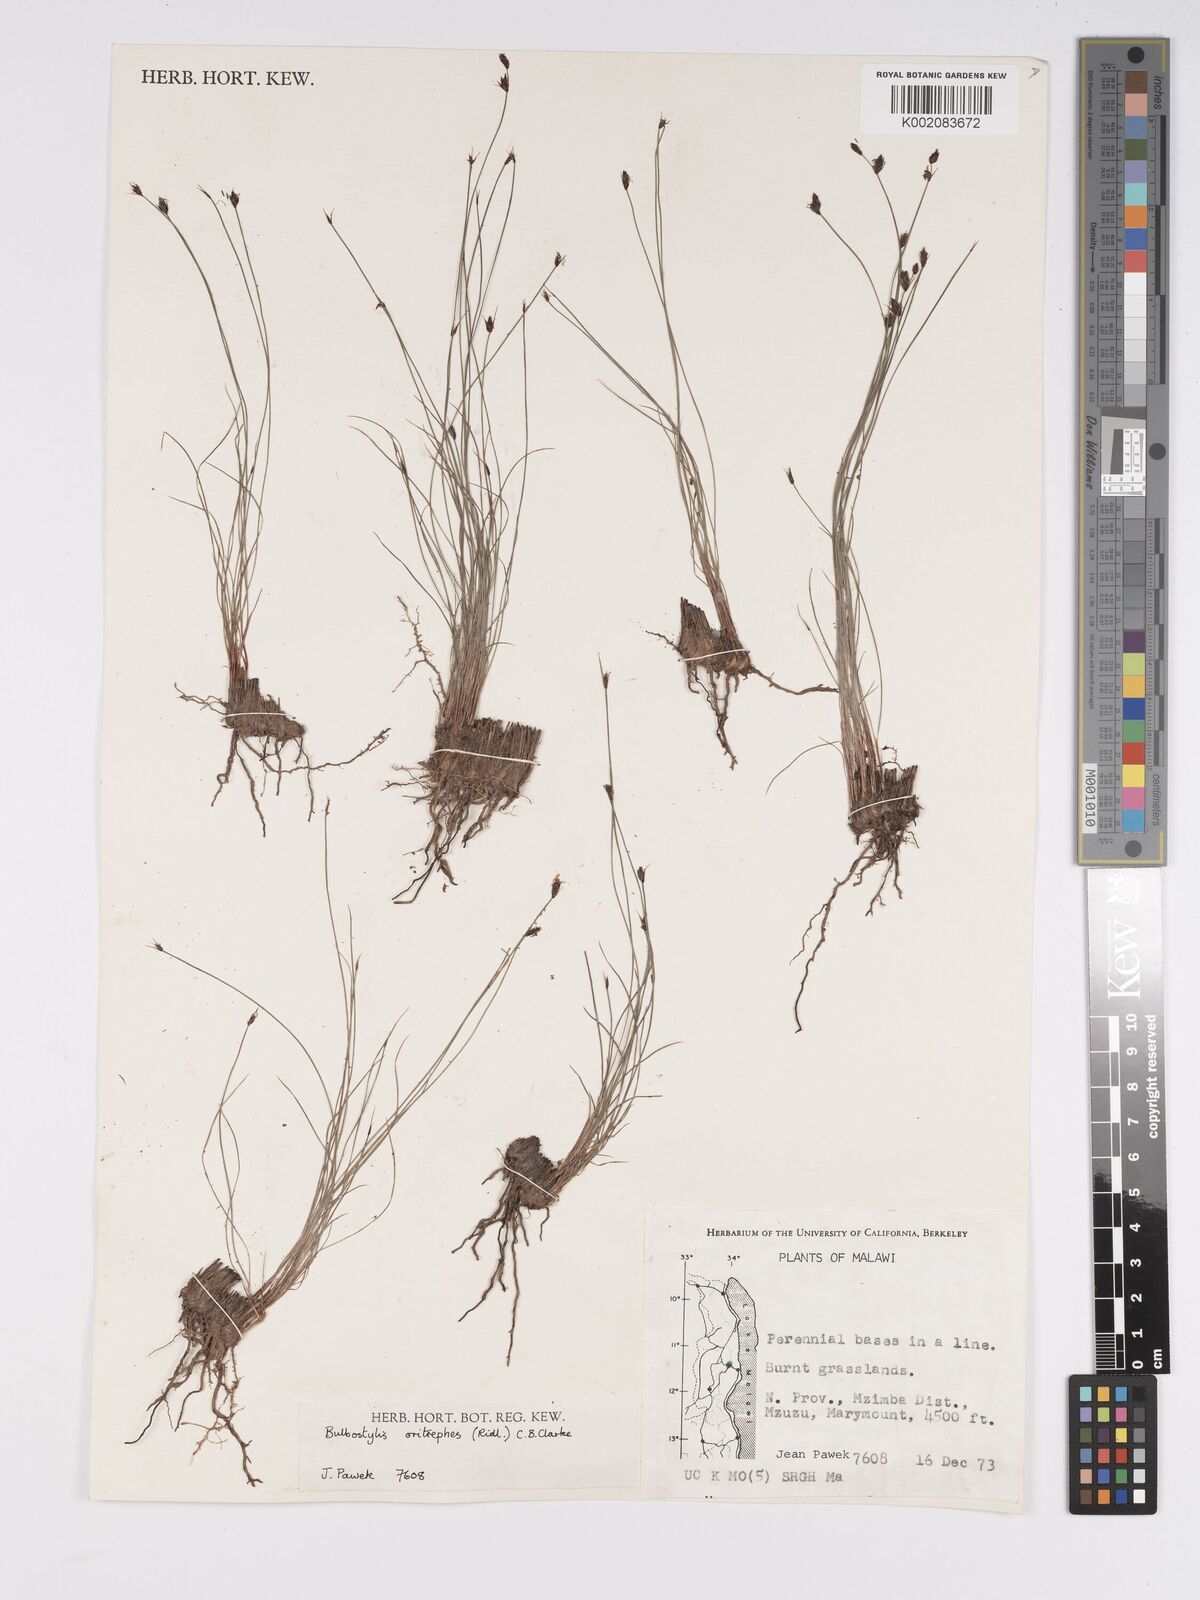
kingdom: Plantae
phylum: Tracheophyta
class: Liliopsida
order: Poales
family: Cyperaceae
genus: Bulbostylis
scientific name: Bulbostylis oritrephes
